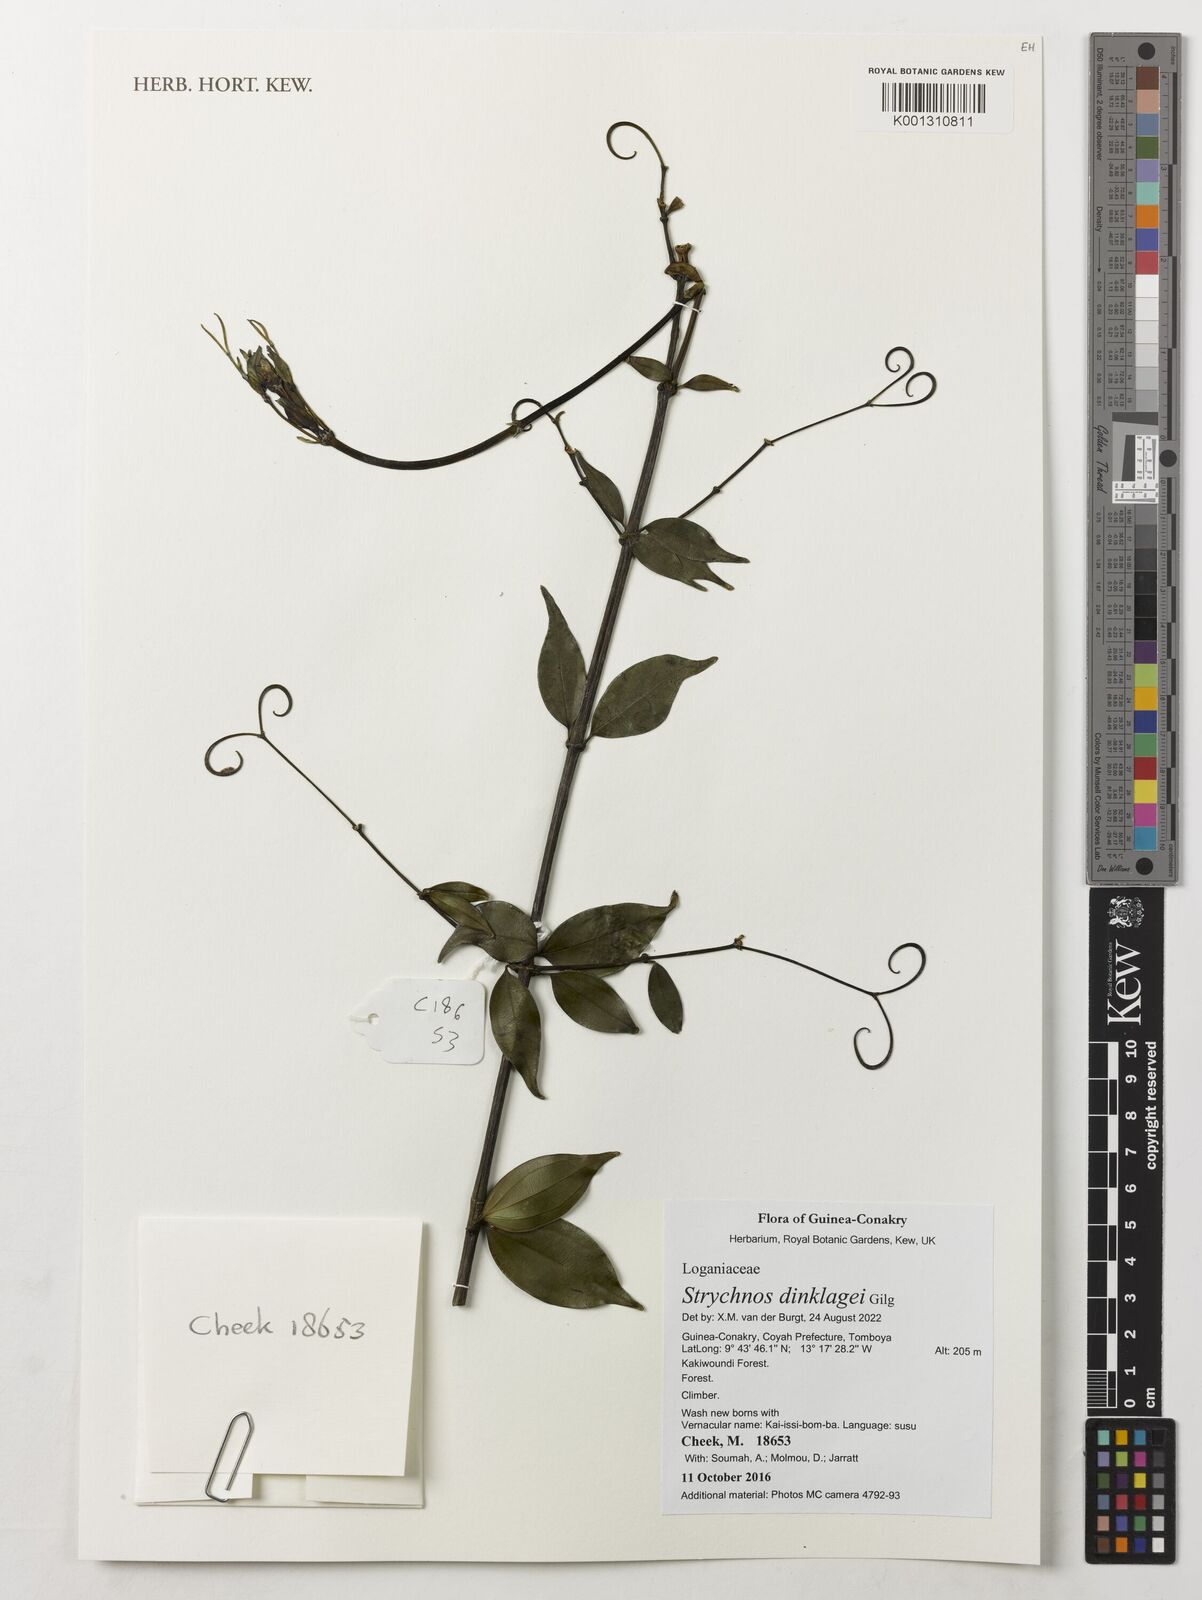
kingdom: Plantae
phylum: Tracheophyta
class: Magnoliopsida
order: Gentianales
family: Loganiaceae
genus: Strychnos
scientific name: Strychnos dinklagei
